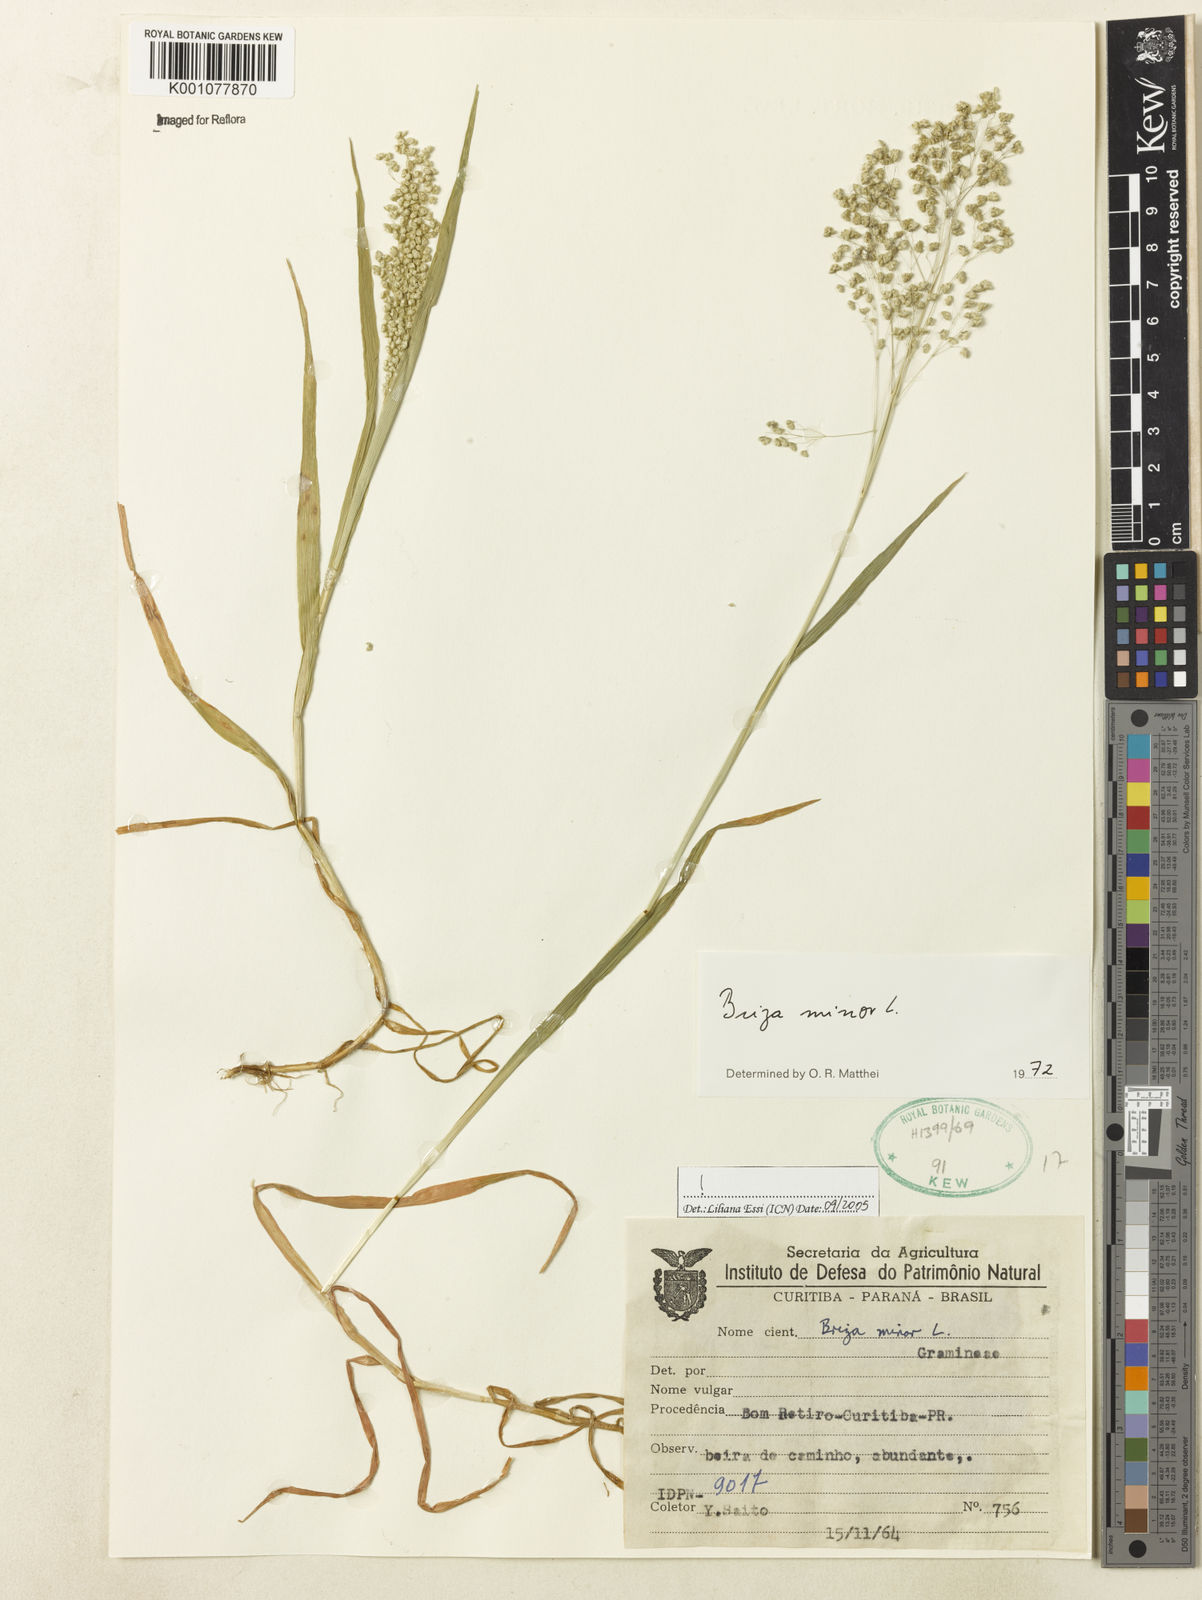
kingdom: Plantae
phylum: Tracheophyta
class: Liliopsida
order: Poales
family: Poaceae
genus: Briza
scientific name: Briza minor
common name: Lesser quaking-grass
